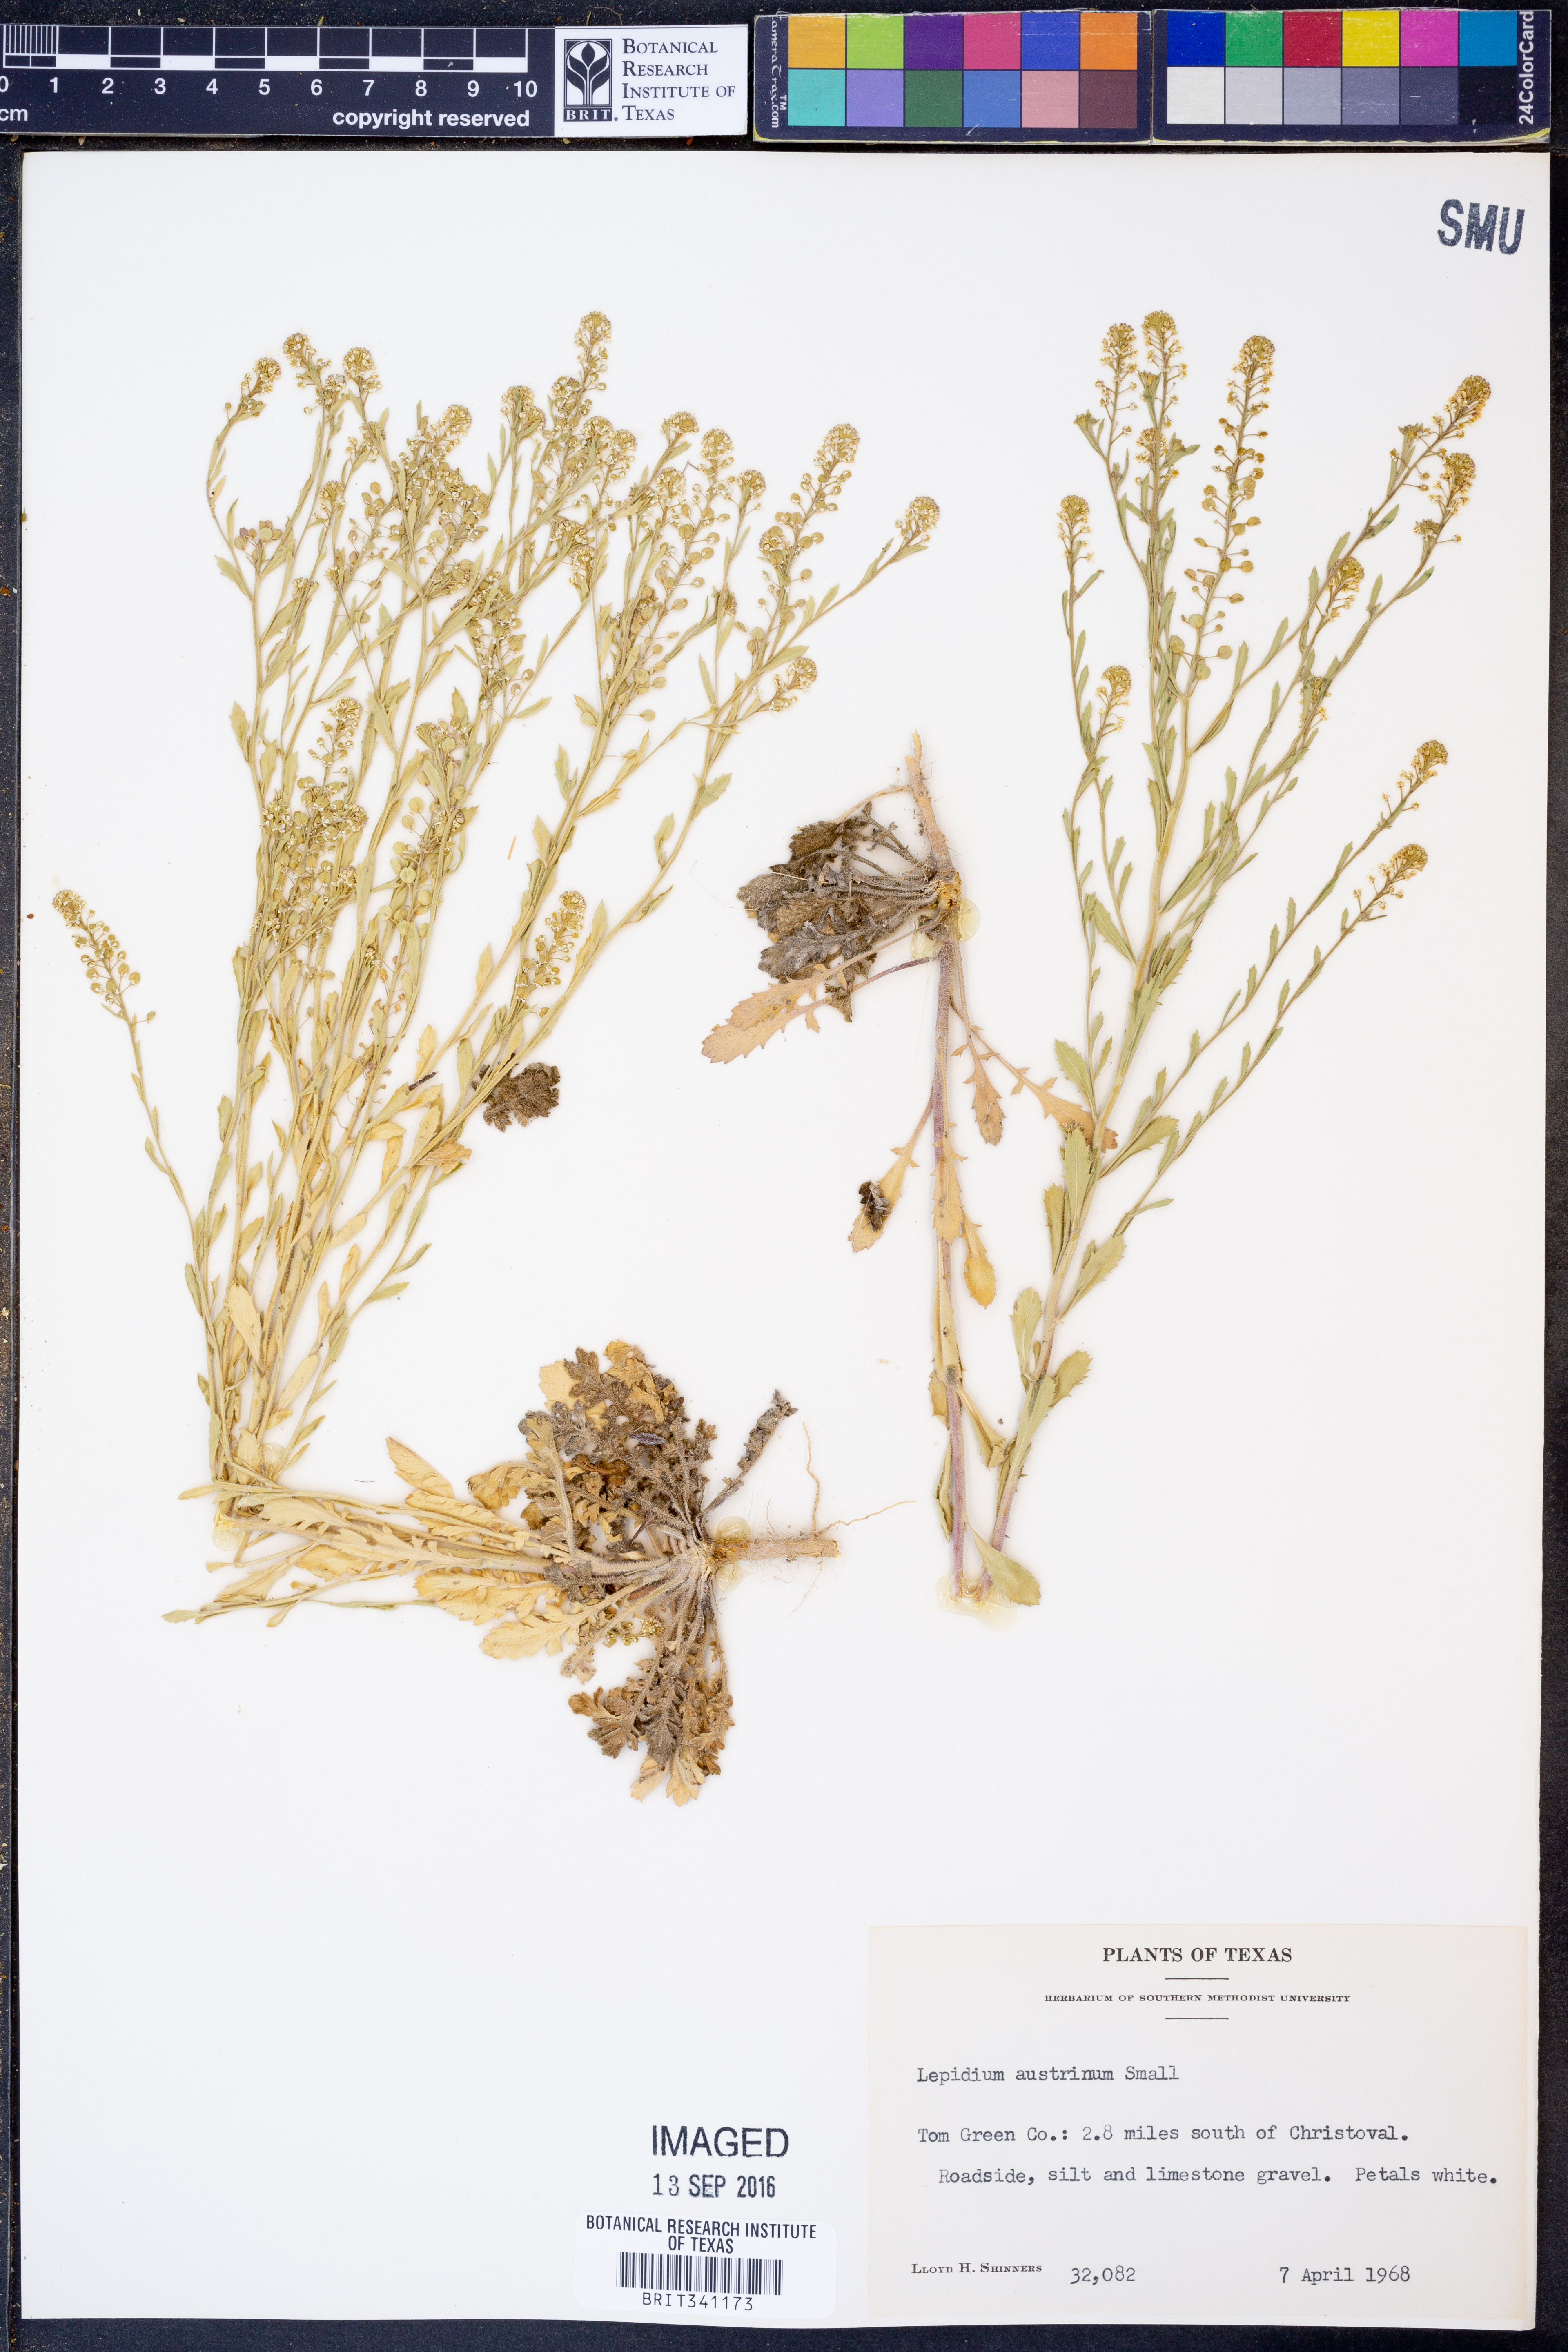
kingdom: Plantae
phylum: Tracheophyta
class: Magnoliopsida
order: Brassicales
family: Brassicaceae
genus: Lepidium
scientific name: Lepidium austrinum
